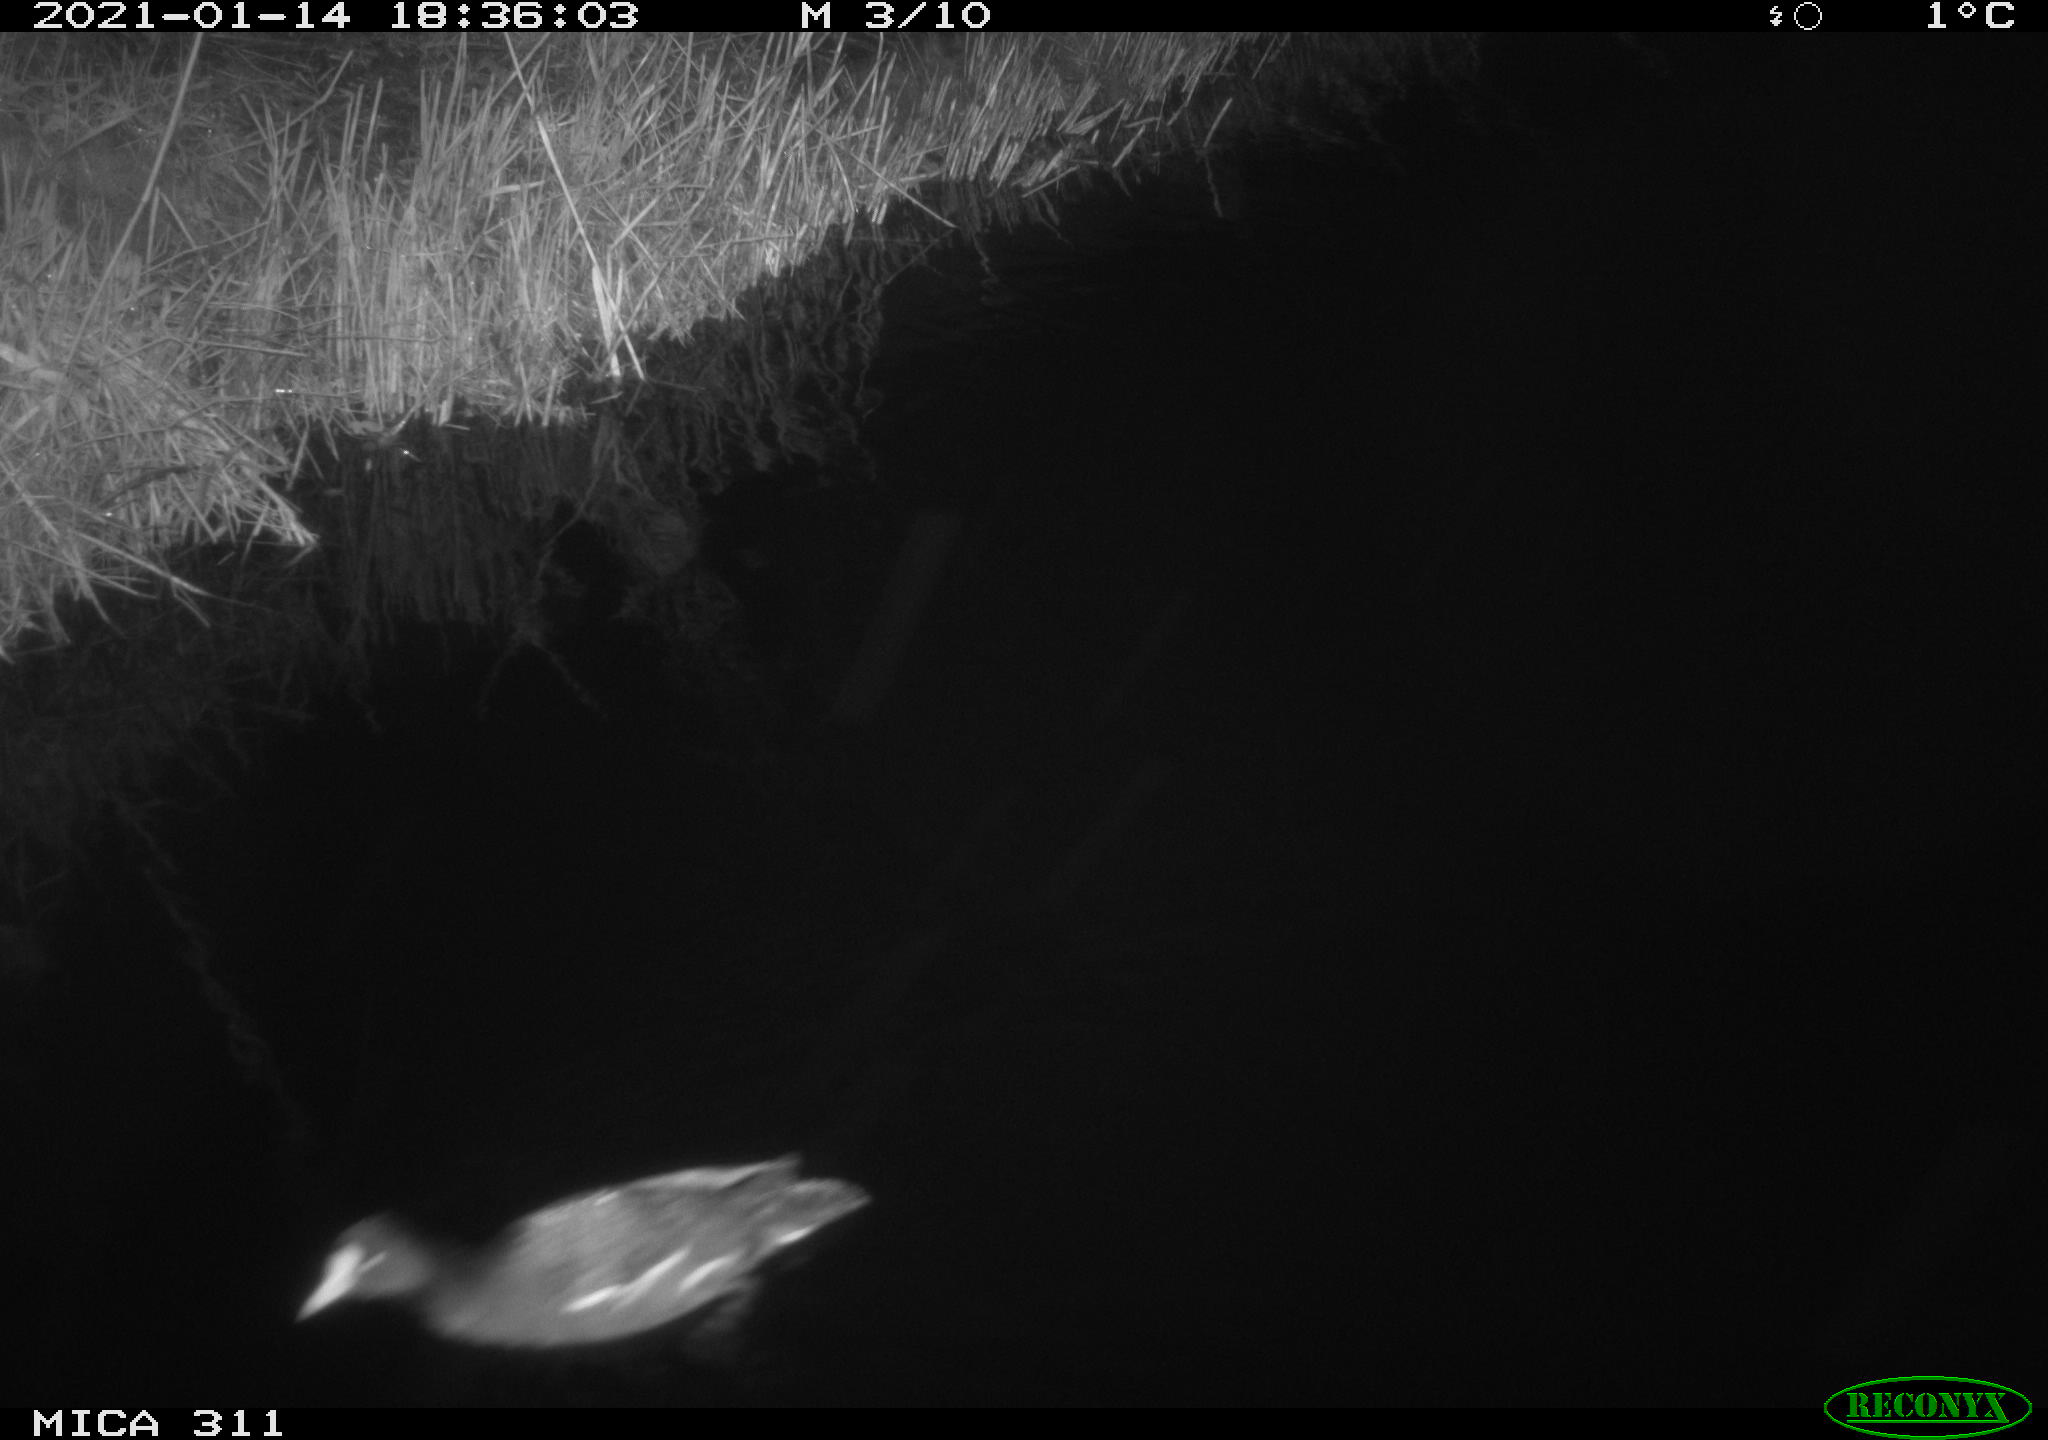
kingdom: Animalia
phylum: Chordata
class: Aves
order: Gruiformes
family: Rallidae
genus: Gallinula
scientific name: Gallinula chloropus
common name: Common moorhen
